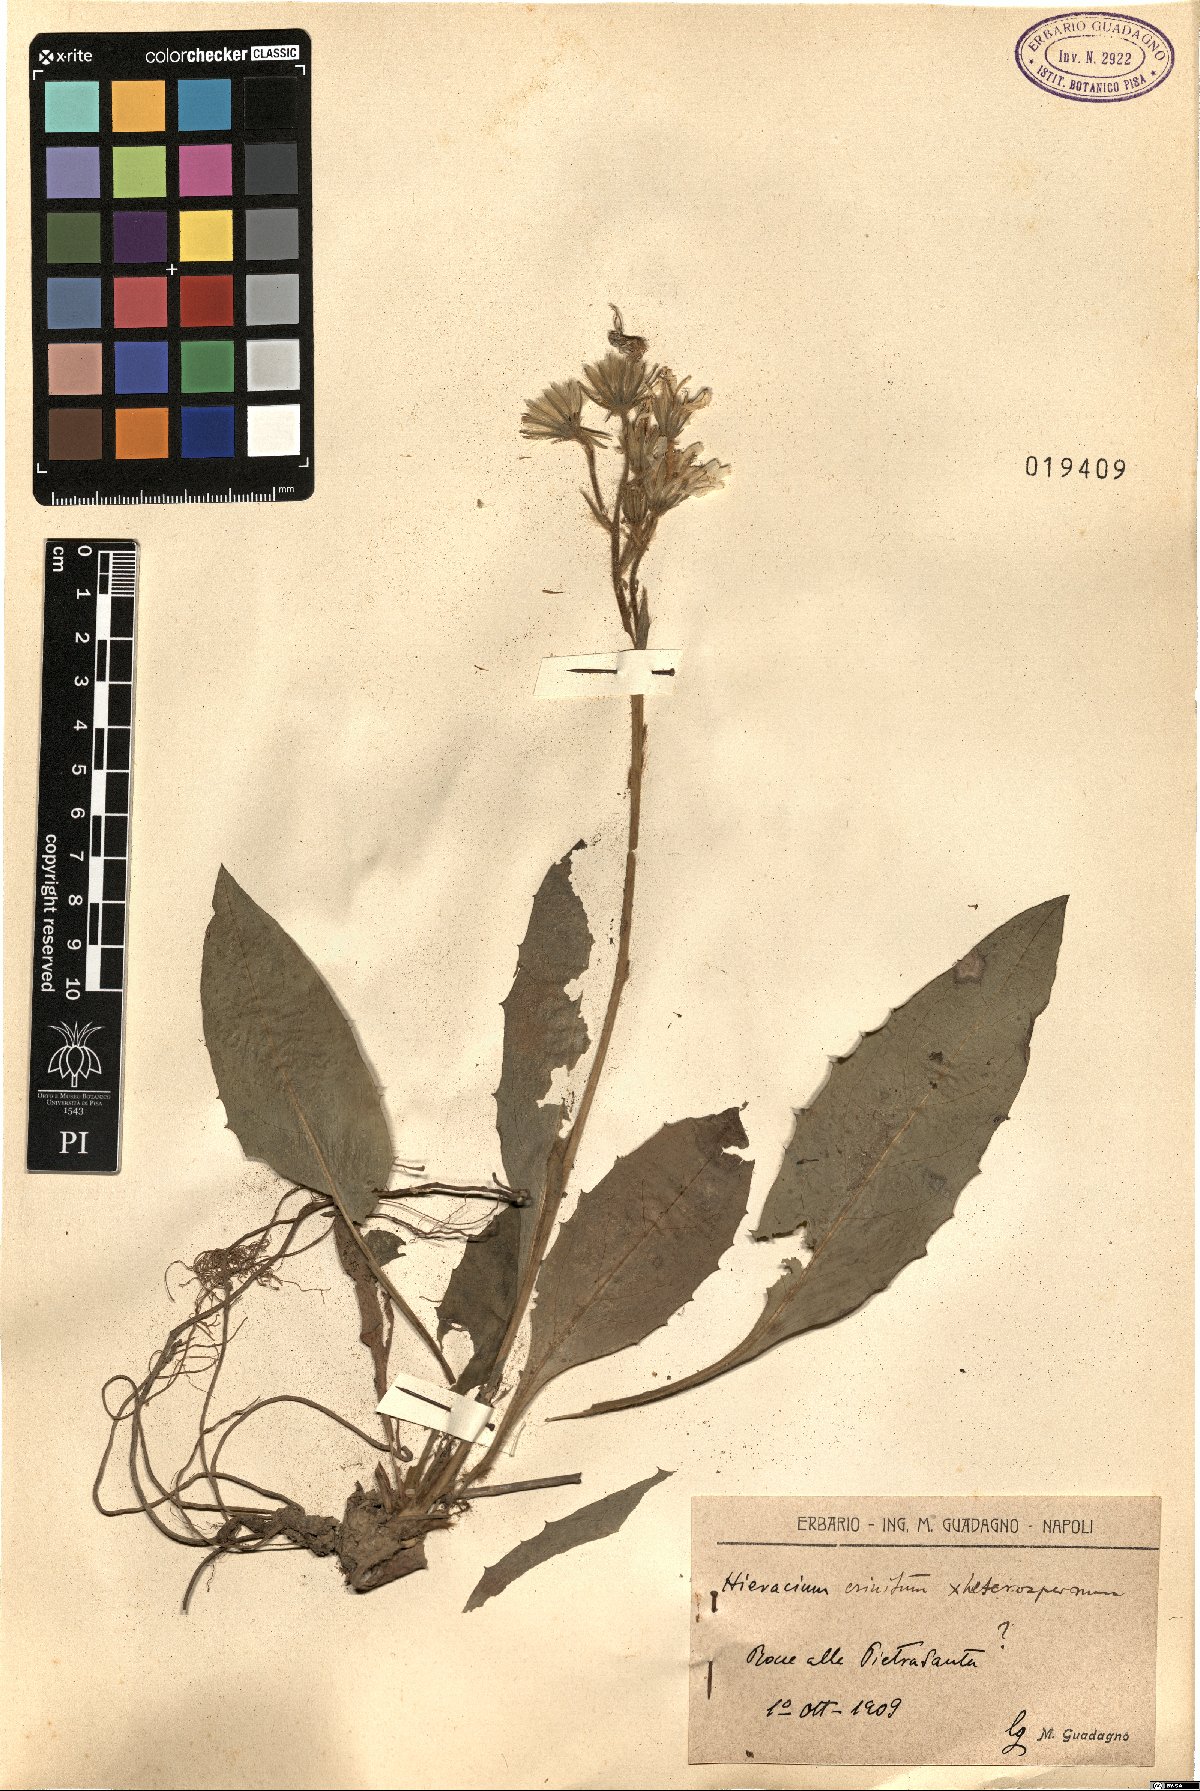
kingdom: Plantae
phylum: Tracheophyta
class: Magnoliopsida
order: Asterales
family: Asteraceae
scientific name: Asteraceae
